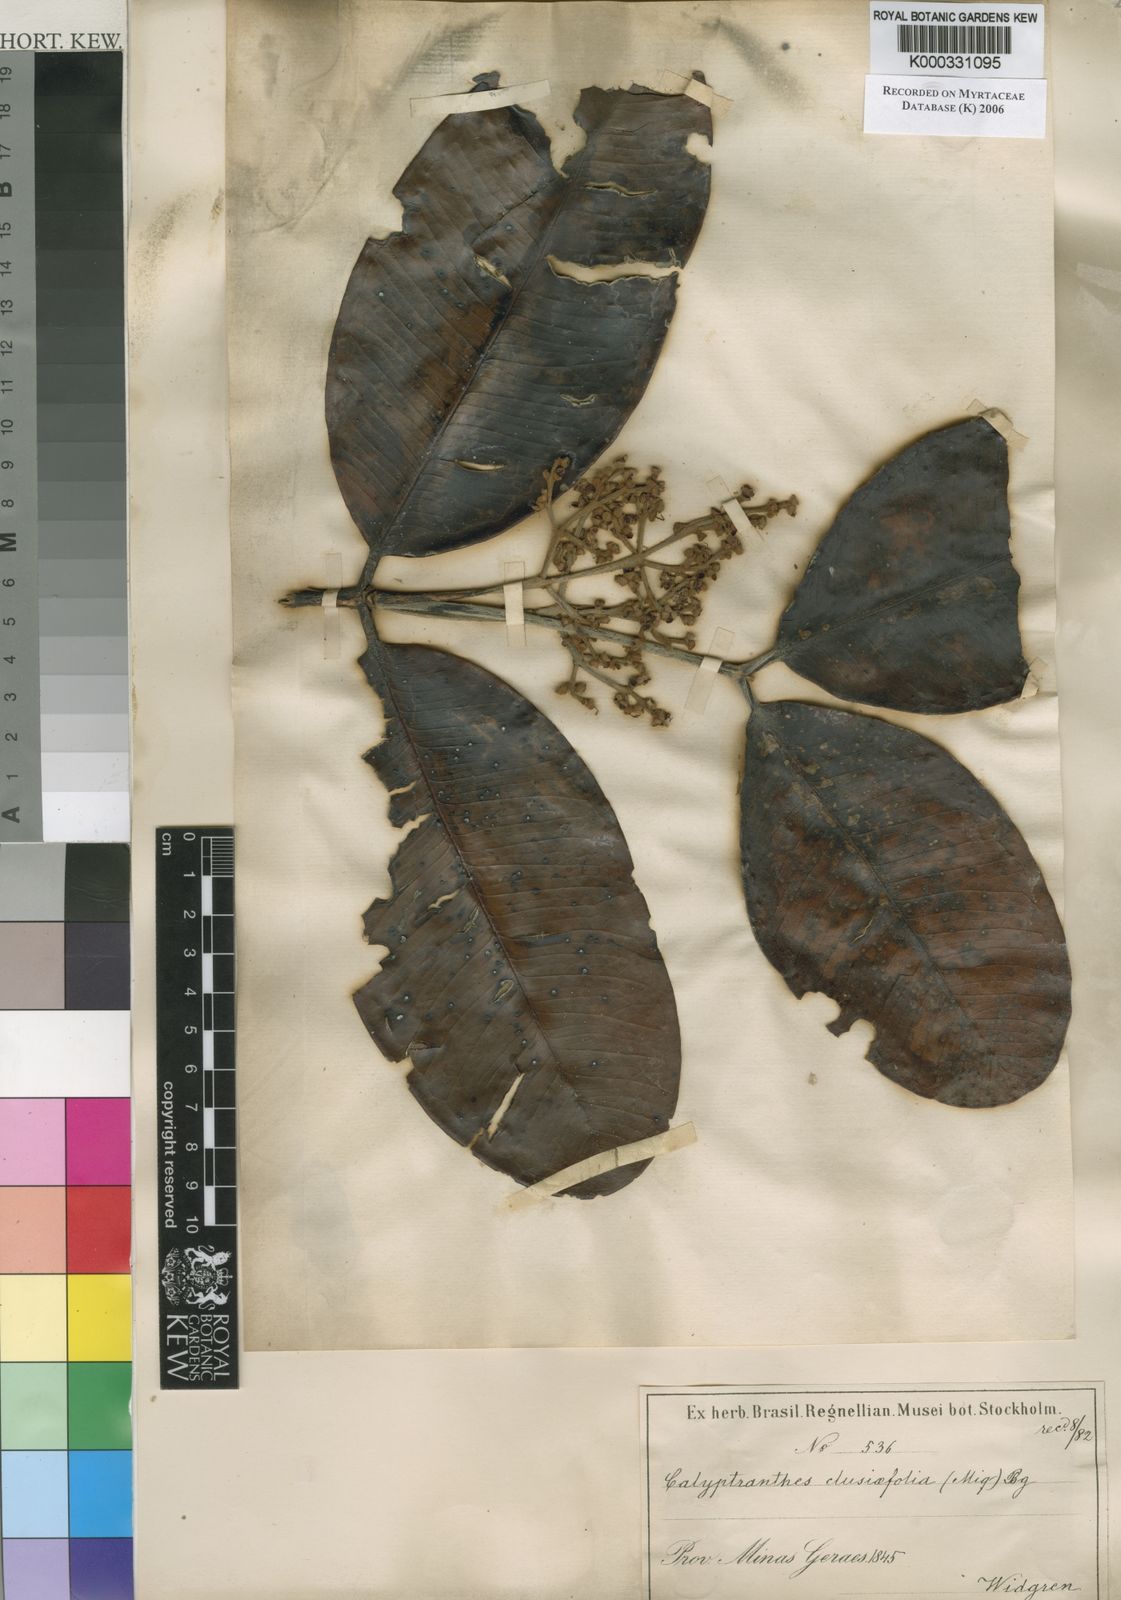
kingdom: Plantae
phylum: Tracheophyta
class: Magnoliopsida
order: Myrtales
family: Myrtaceae
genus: Calyptranthes
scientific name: Calyptranthes
